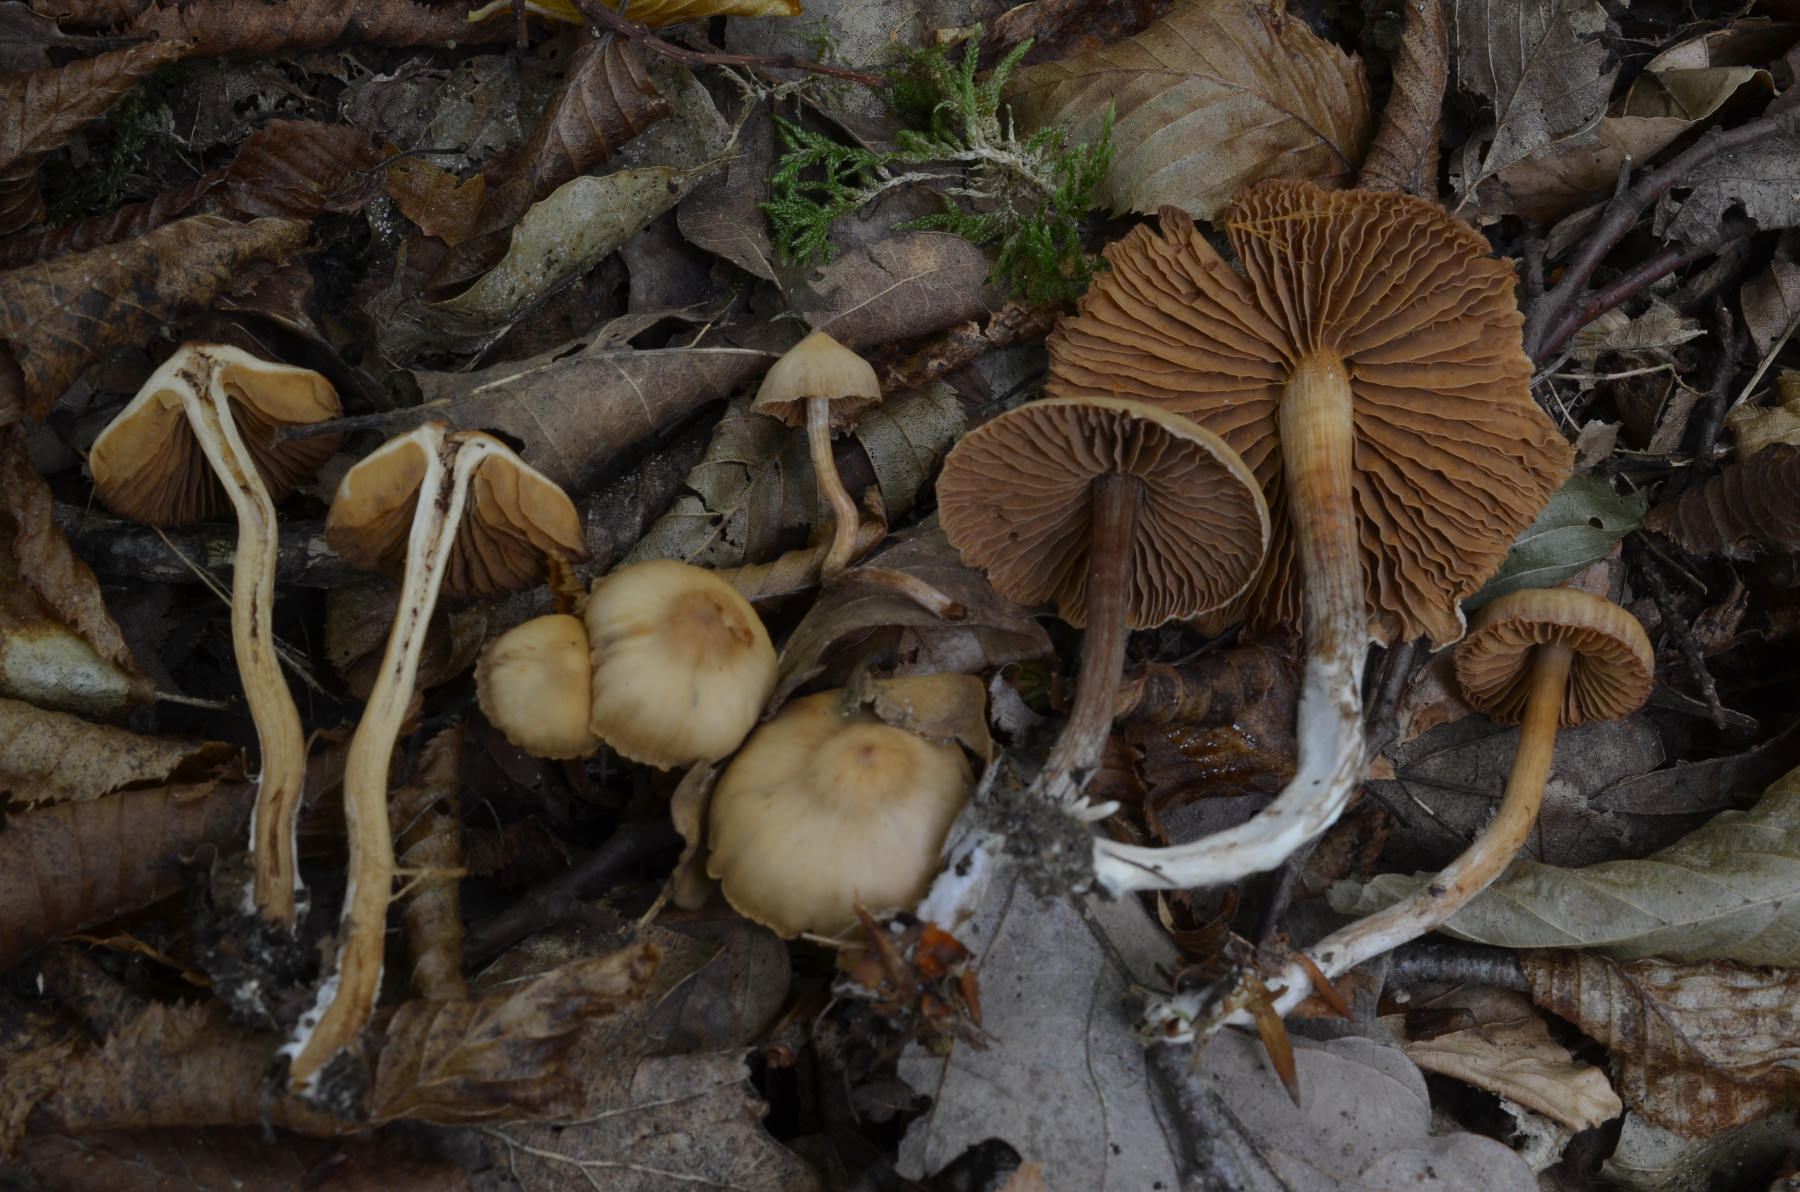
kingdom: Fungi
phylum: Basidiomycota
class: Agaricomycetes
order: Agaricales
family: Cortinariaceae
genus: Cortinarius
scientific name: Cortinarius russulaespermus
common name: finstribet slørhat
